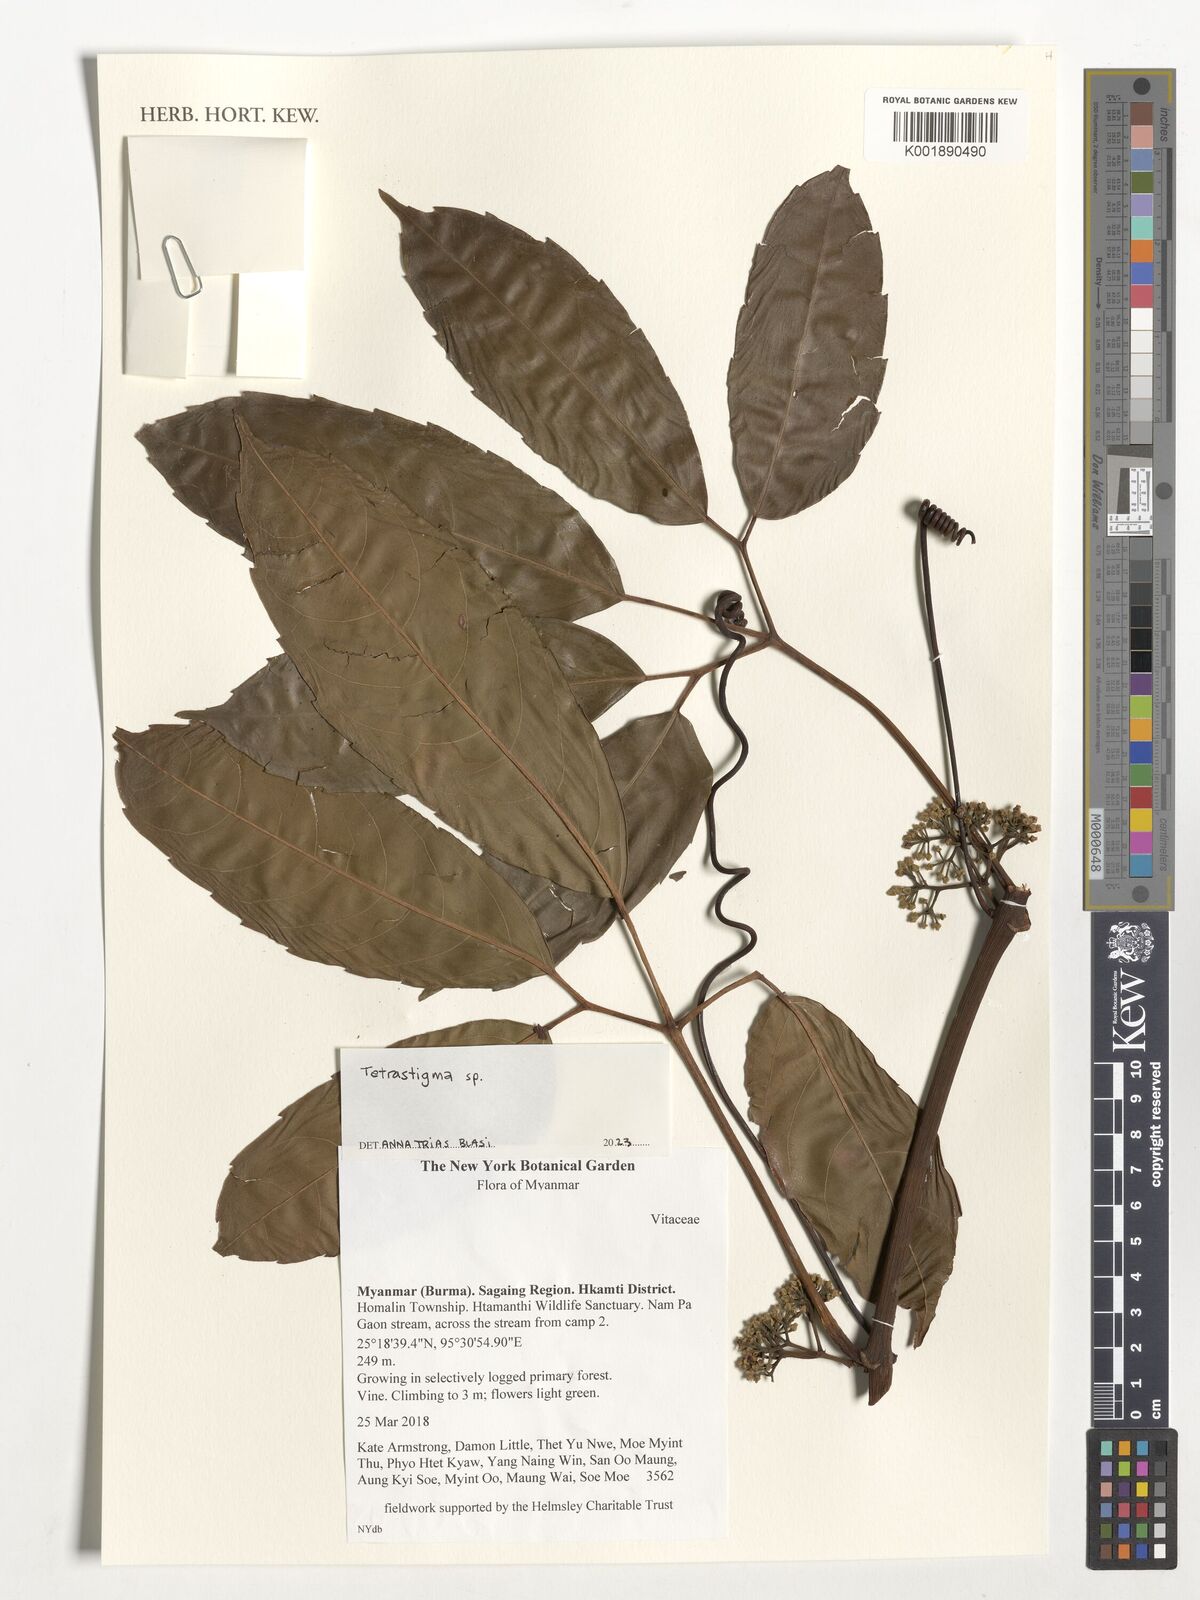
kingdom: Plantae
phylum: Tracheophyta
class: Magnoliopsida
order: Vitales
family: Vitaceae
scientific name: Vitaceae
